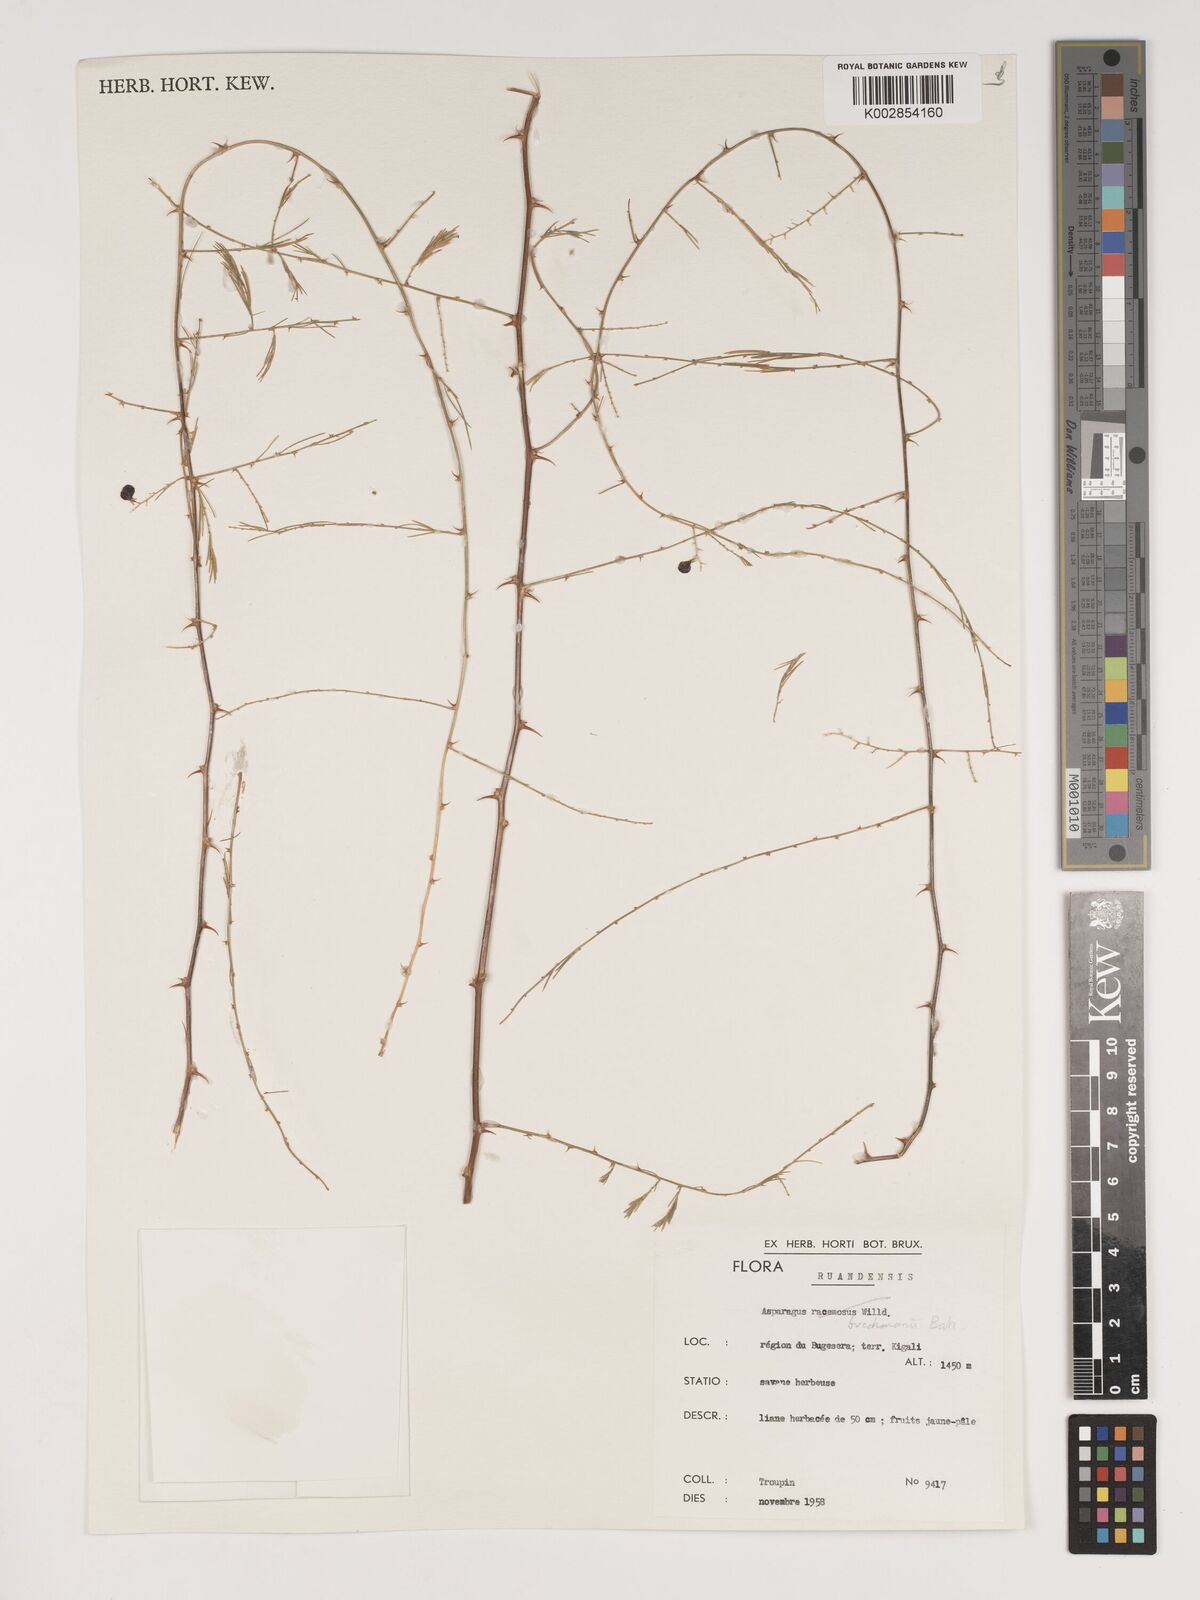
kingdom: Plantae
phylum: Tracheophyta
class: Liliopsida
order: Asparagales
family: Asparagaceae
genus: Asparagus
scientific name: Asparagus buchananii
